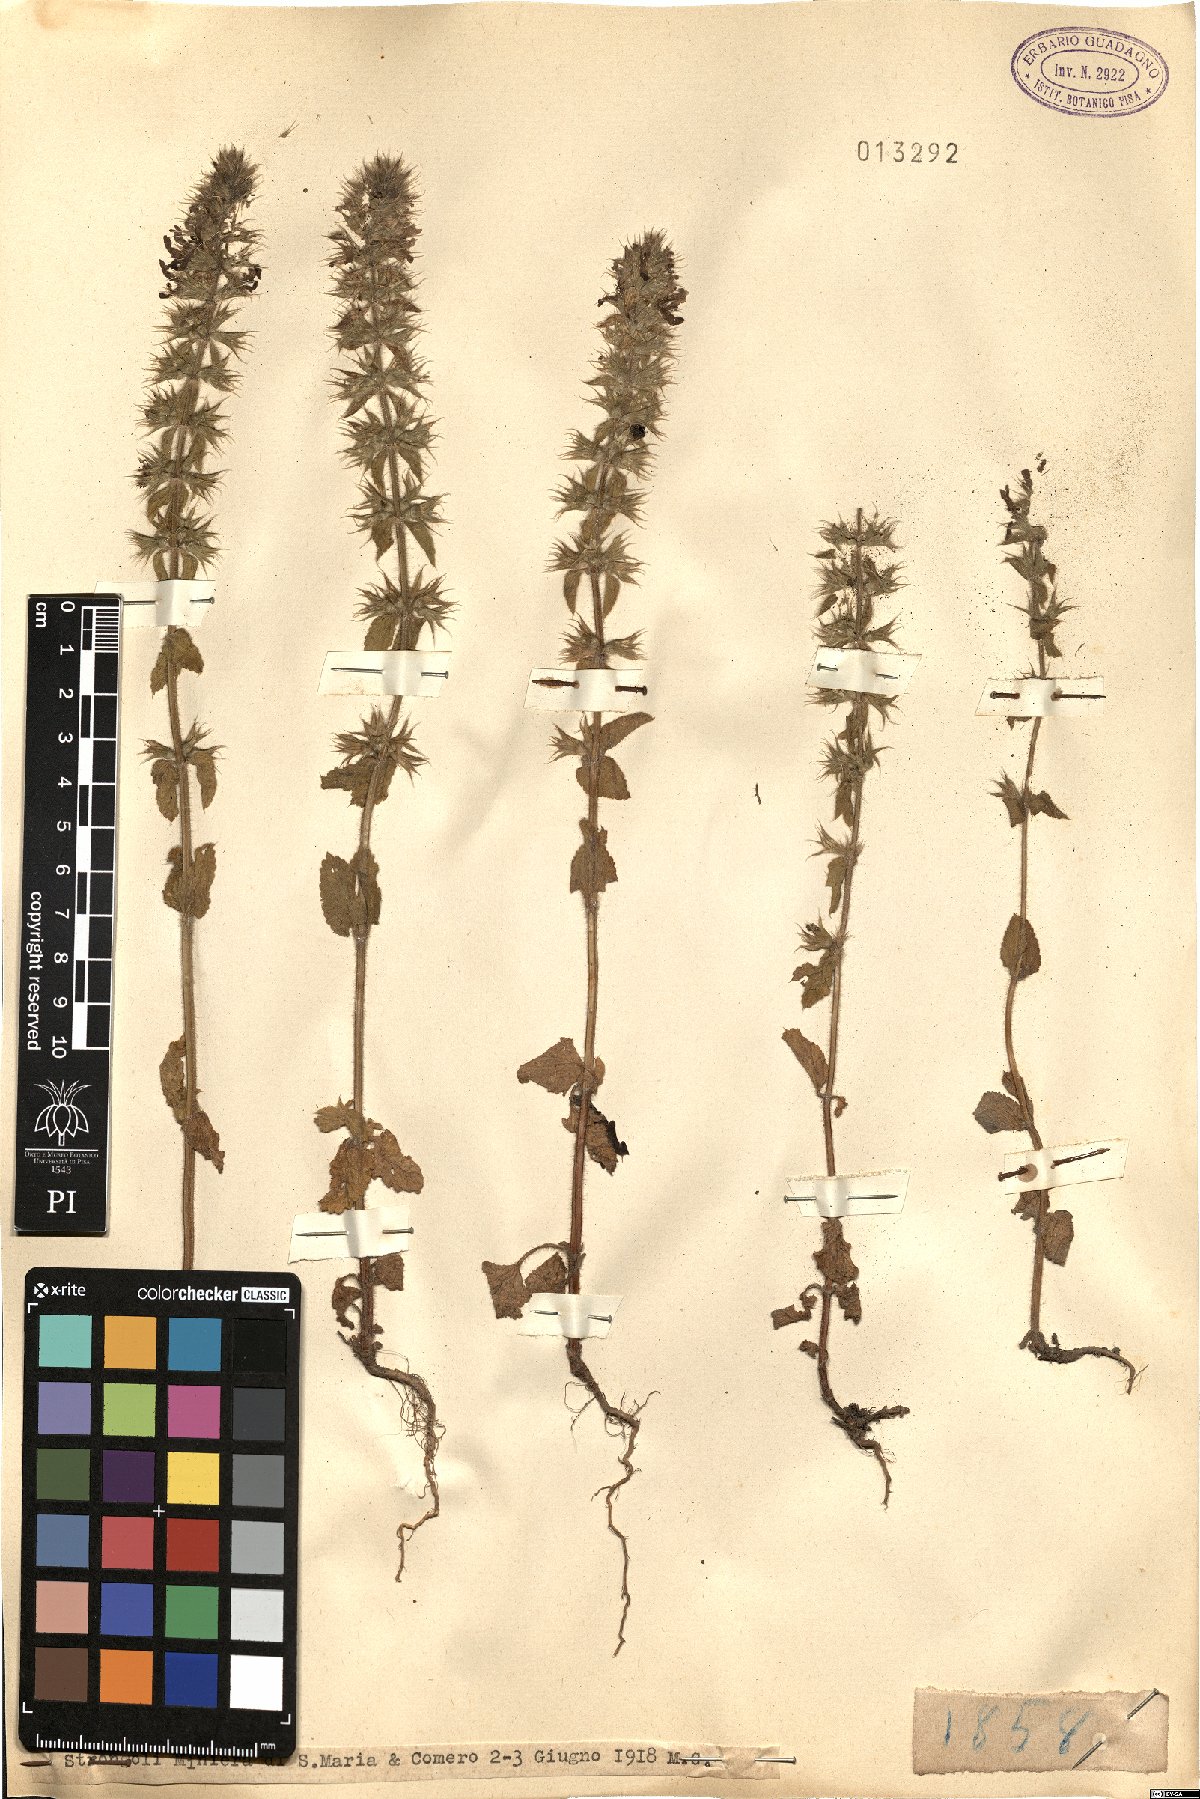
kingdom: Plantae
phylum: Tracheophyta
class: Magnoliopsida
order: Lamiales
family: Lamiaceae
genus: Stachys
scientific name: Stachys
